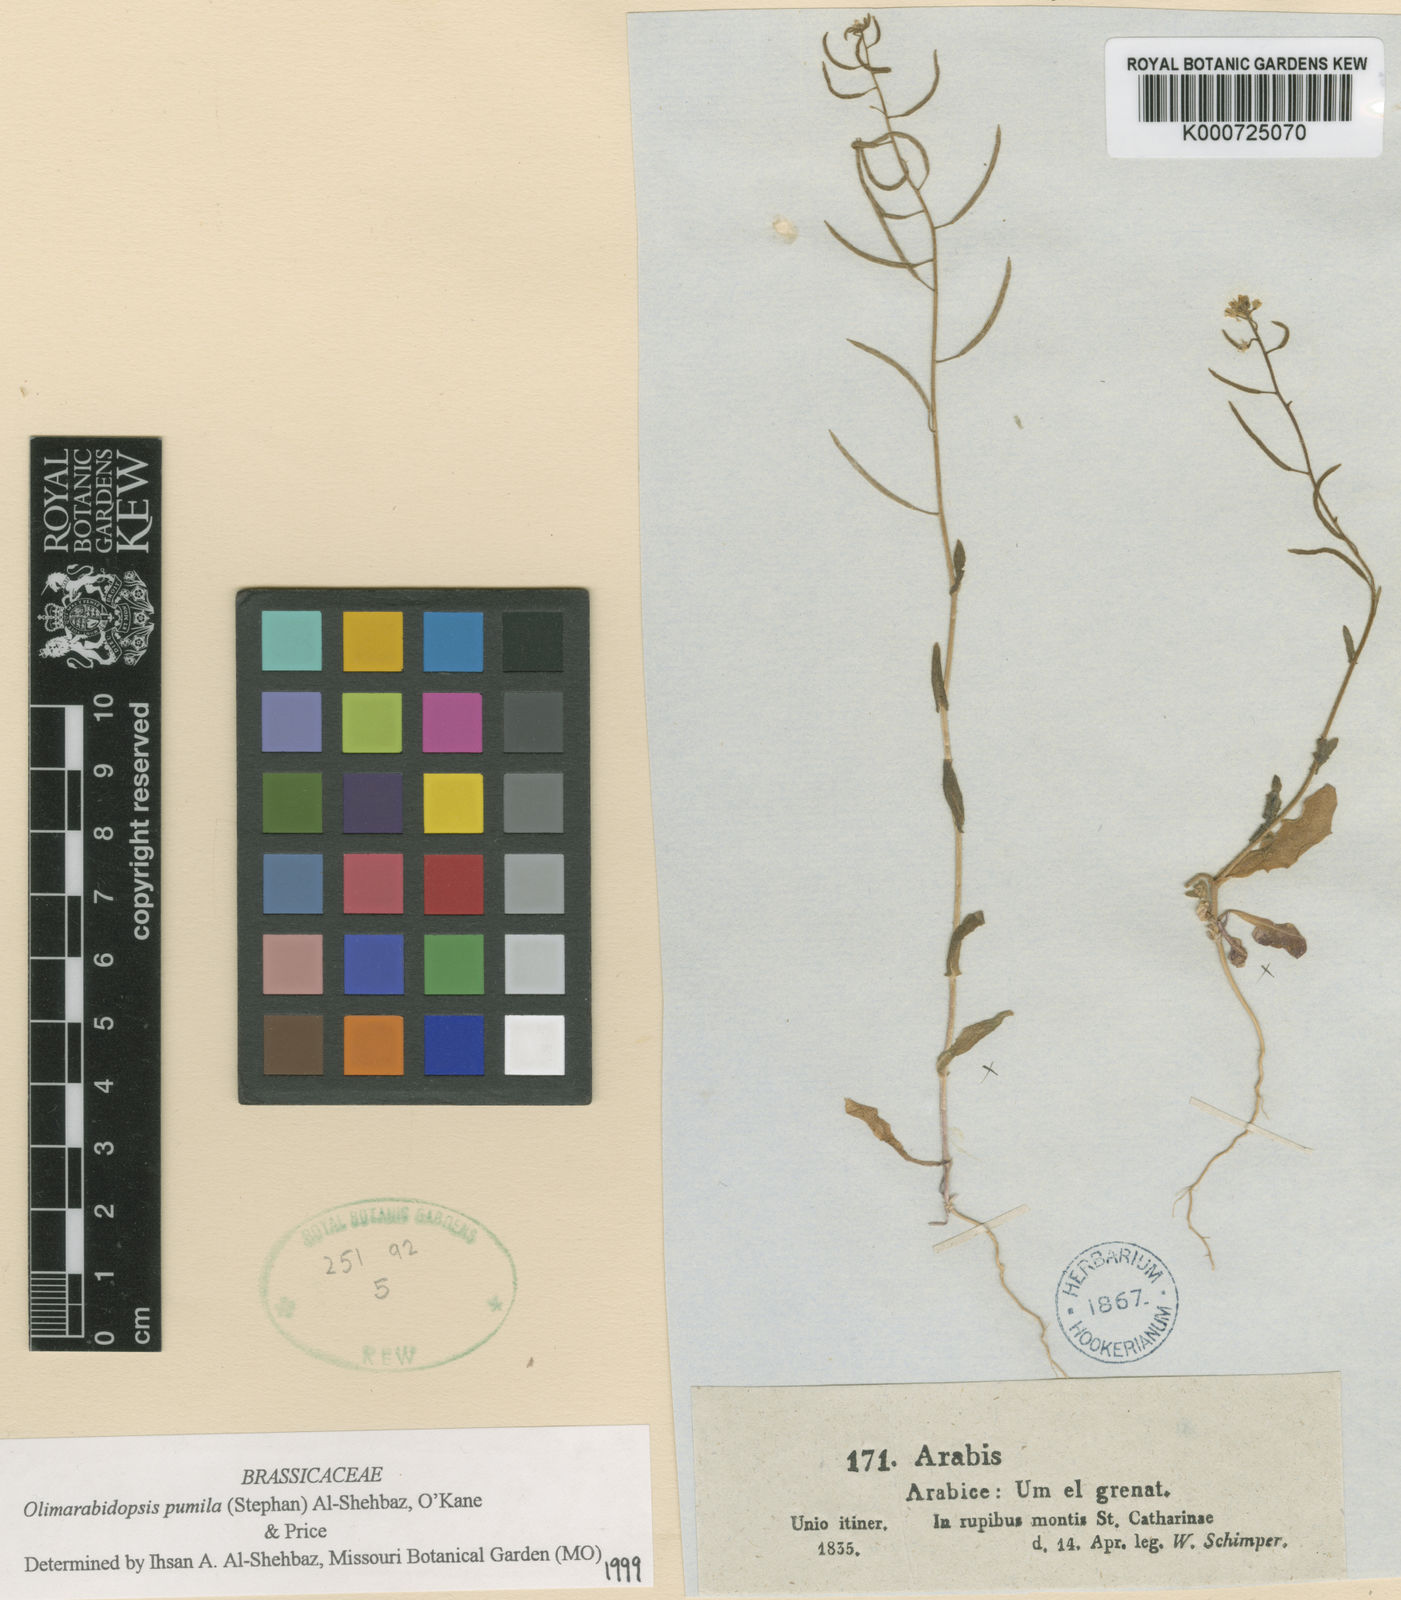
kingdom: Plantae
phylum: Tracheophyta
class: Magnoliopsida
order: Brassicales
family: Brassicaceae
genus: Olimarabidopsis
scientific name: Olimarabidopsis
